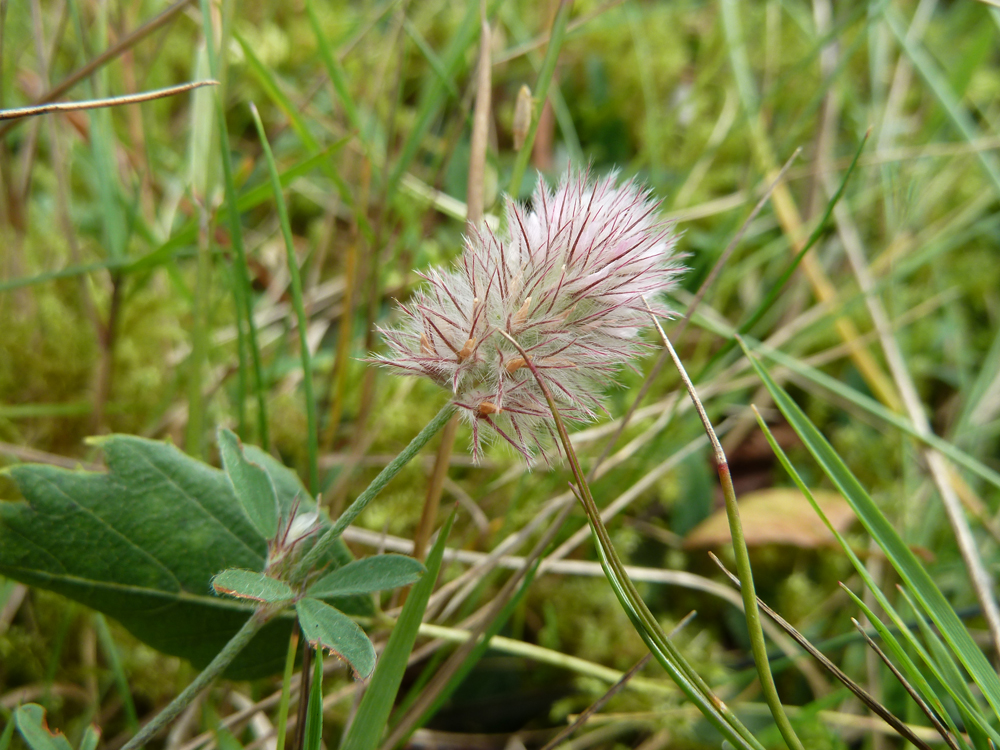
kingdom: Plantae
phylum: Tracheophyta
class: Magnoliopsida
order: Fabales
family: Fabaceae
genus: Trifolium
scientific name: Trifolium arvense
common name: Hare's-foot clover
